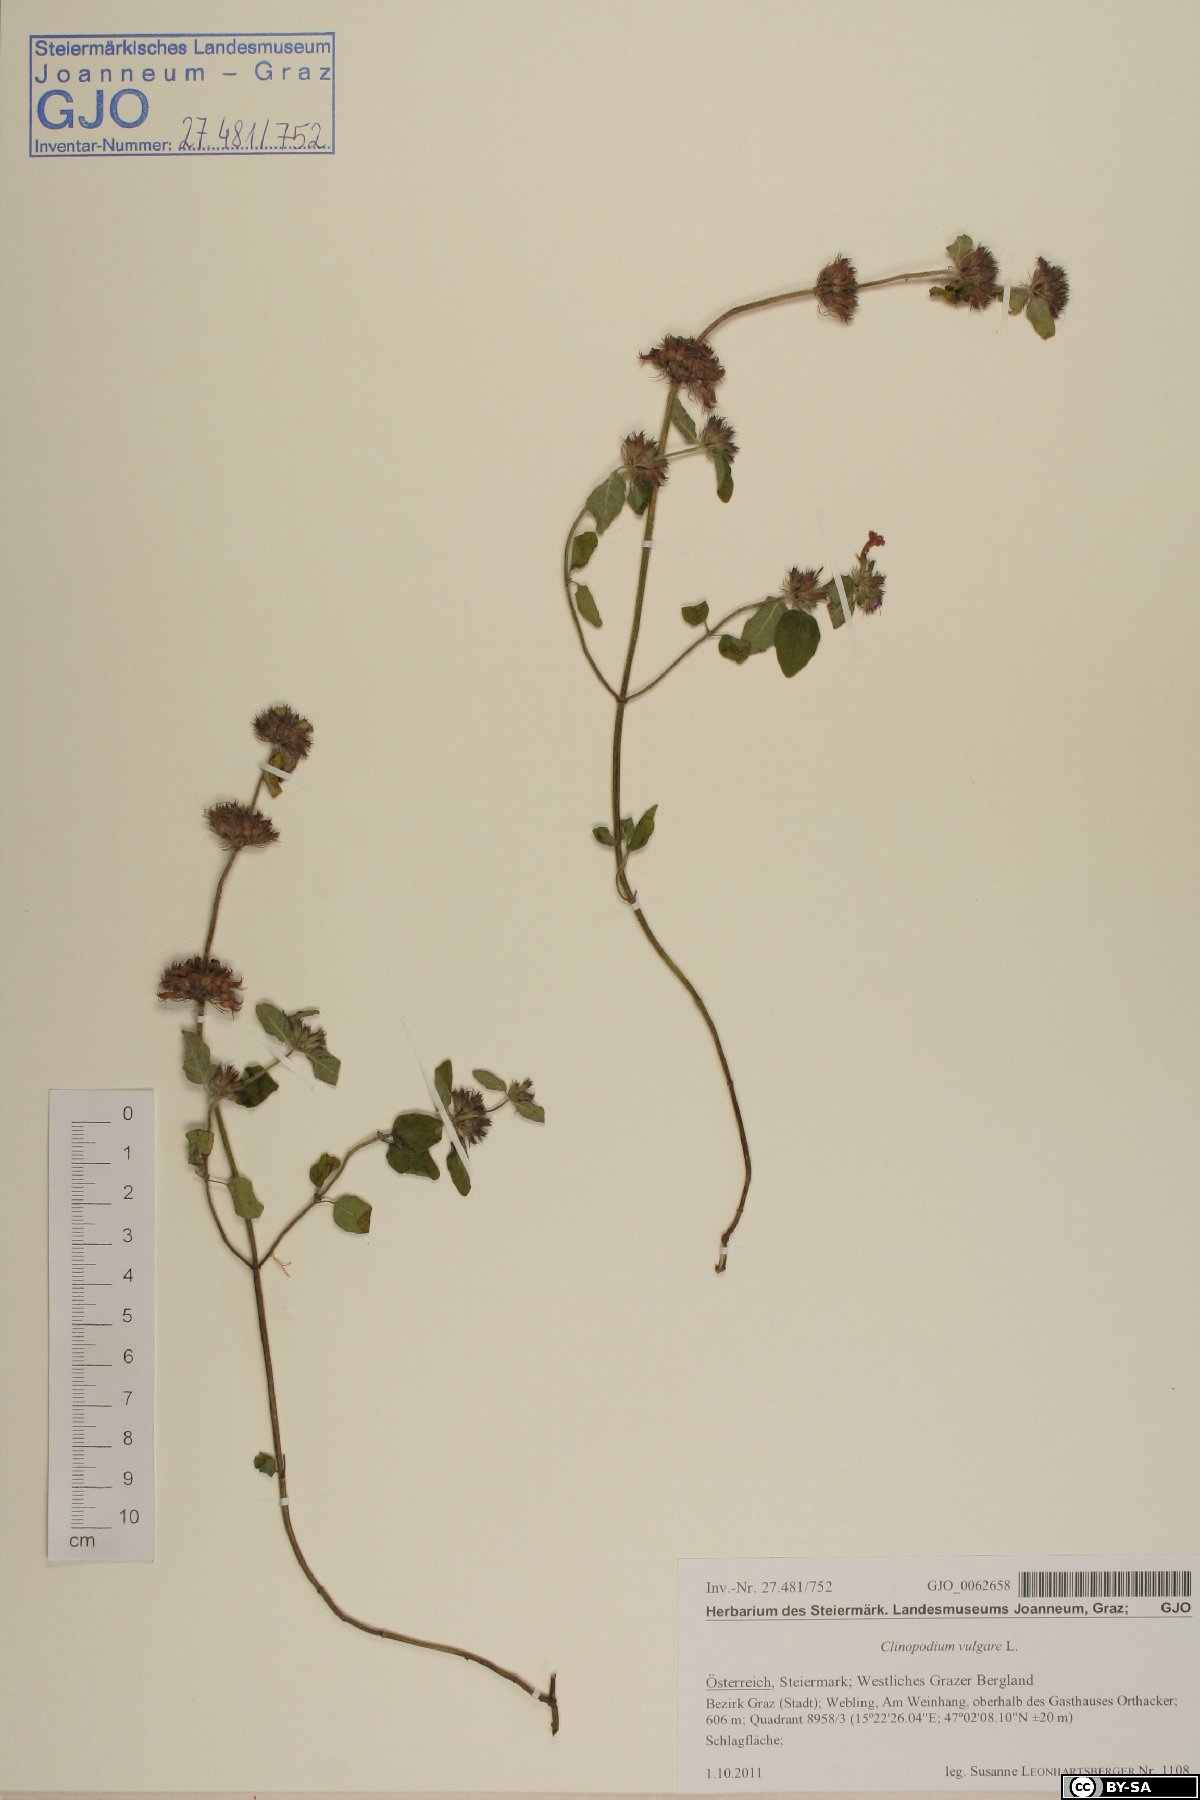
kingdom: Plantae
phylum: Tracheophyta
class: Magnoliopsida
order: Lamiales
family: Lamiaceae
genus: Clinopodium
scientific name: Clinopodium vulgare
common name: Wild basil
